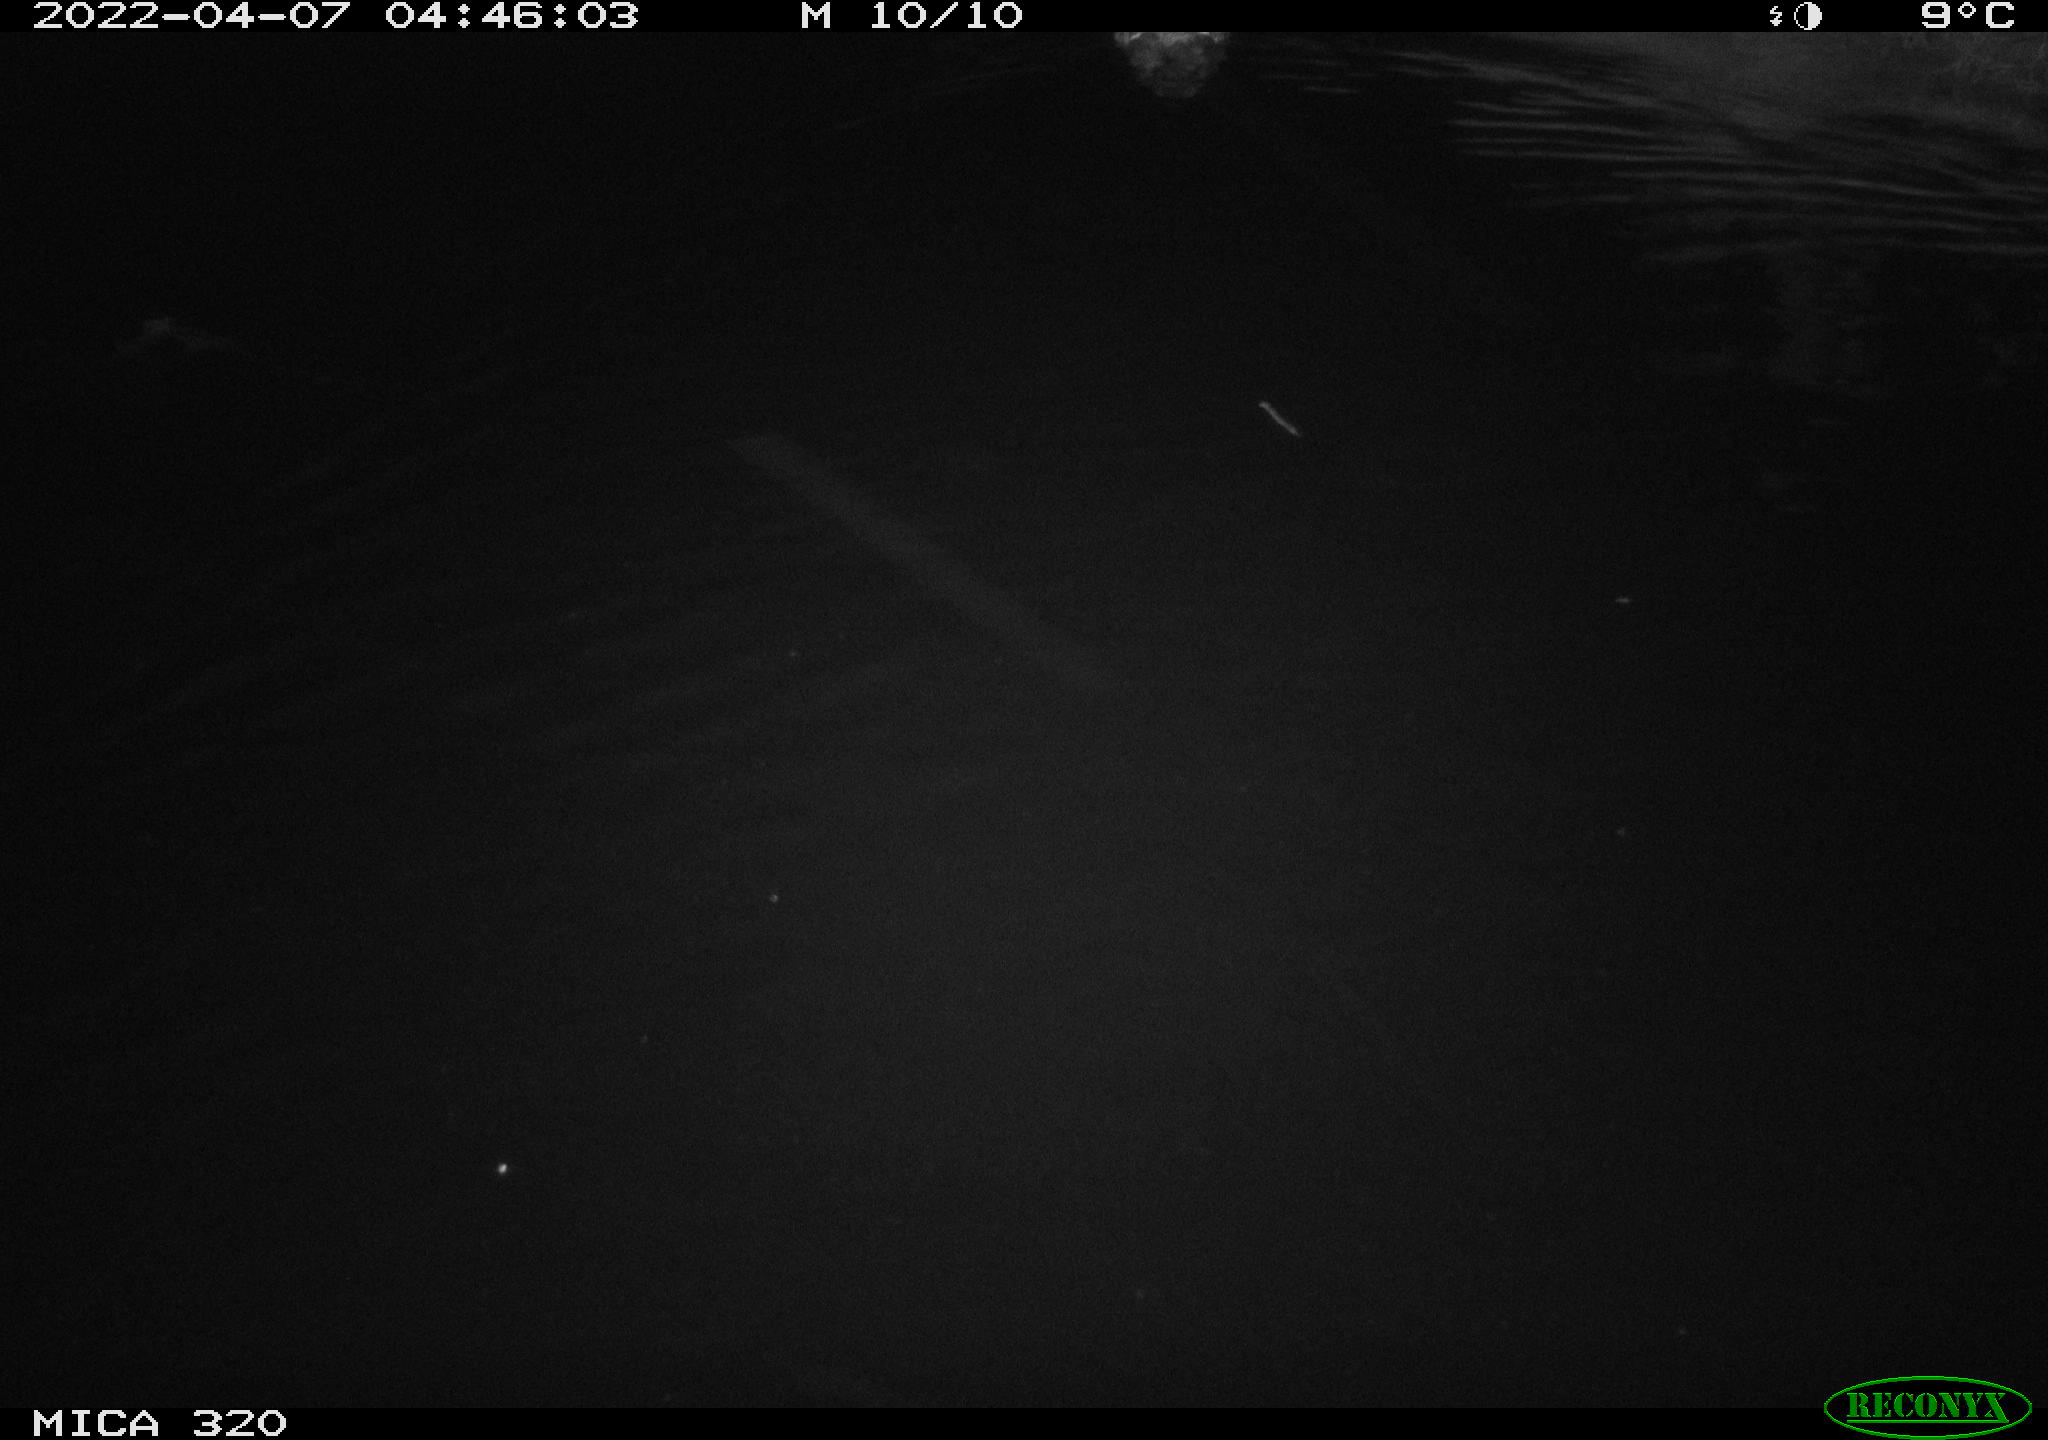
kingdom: Animalia
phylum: Chordata
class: Aves
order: Gruiformes
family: Rallidae
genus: Gallinula
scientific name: Gallinula chloropus
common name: Common moorhen
